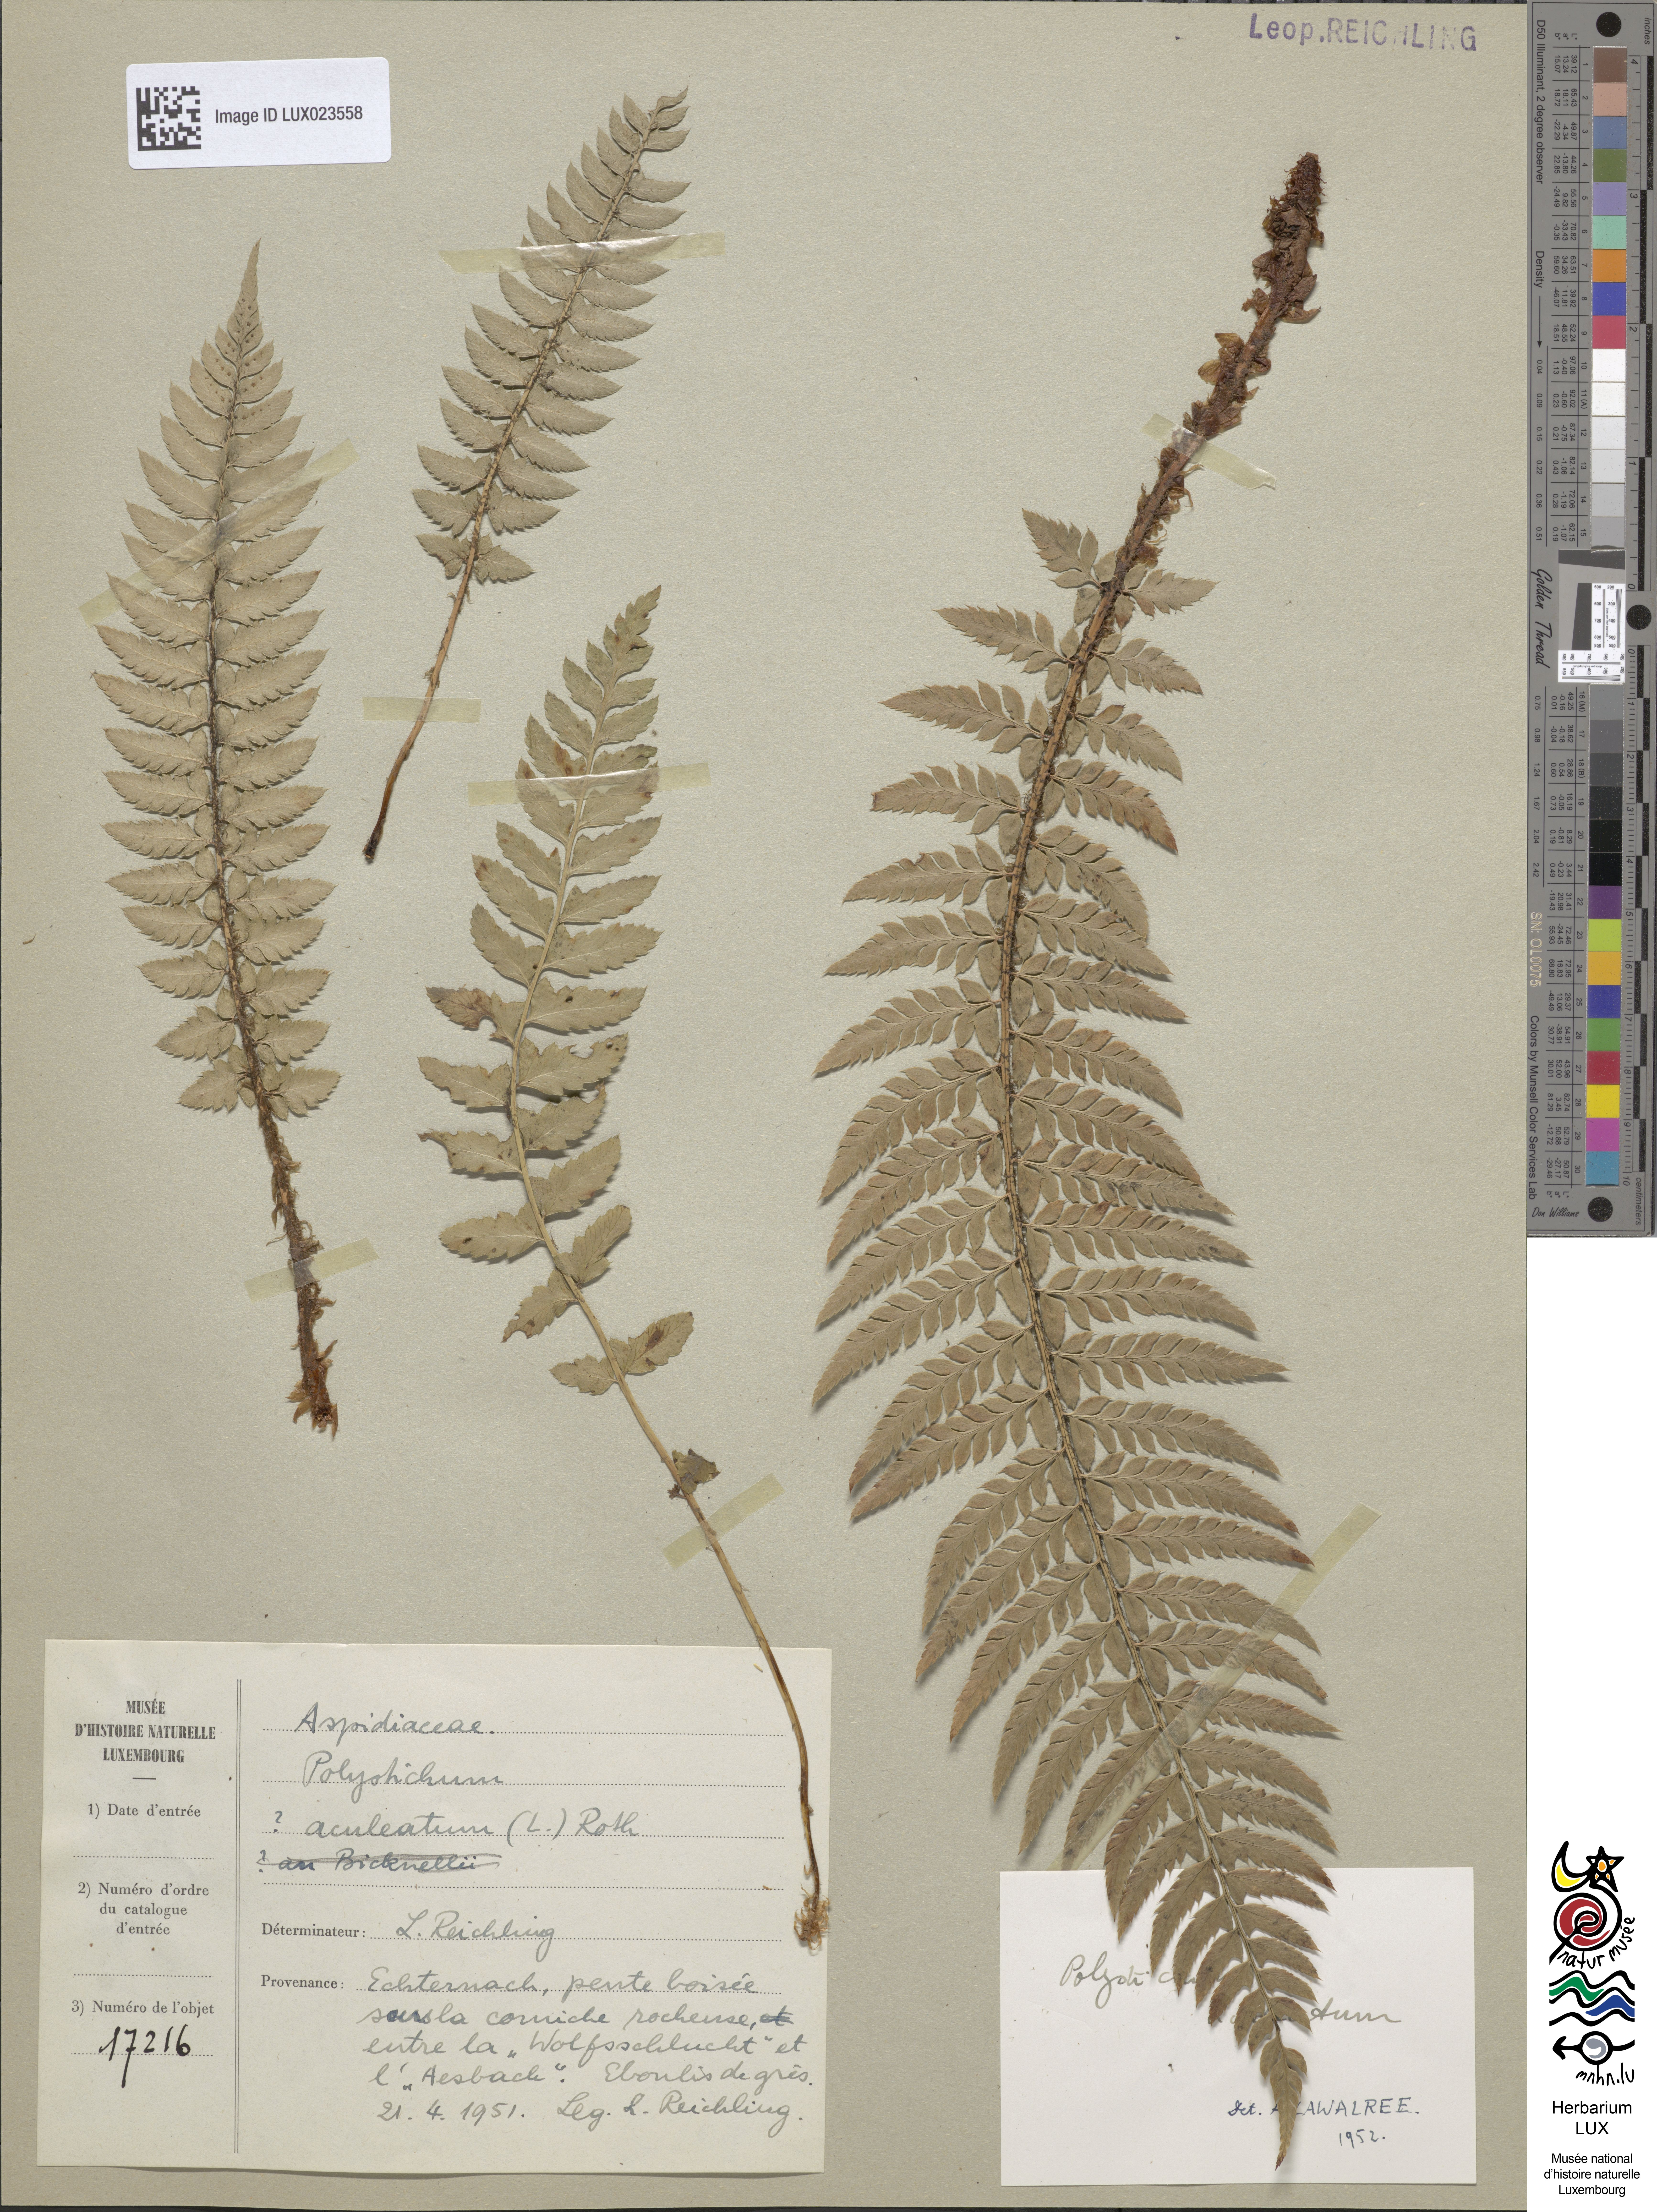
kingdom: Plantae
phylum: Tracheophyta
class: Polypodiopsida
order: Polypodiales
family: Dryopteridaceae
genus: Polystichum
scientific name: Polystichum aculeatum
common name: Hard shield-fern
